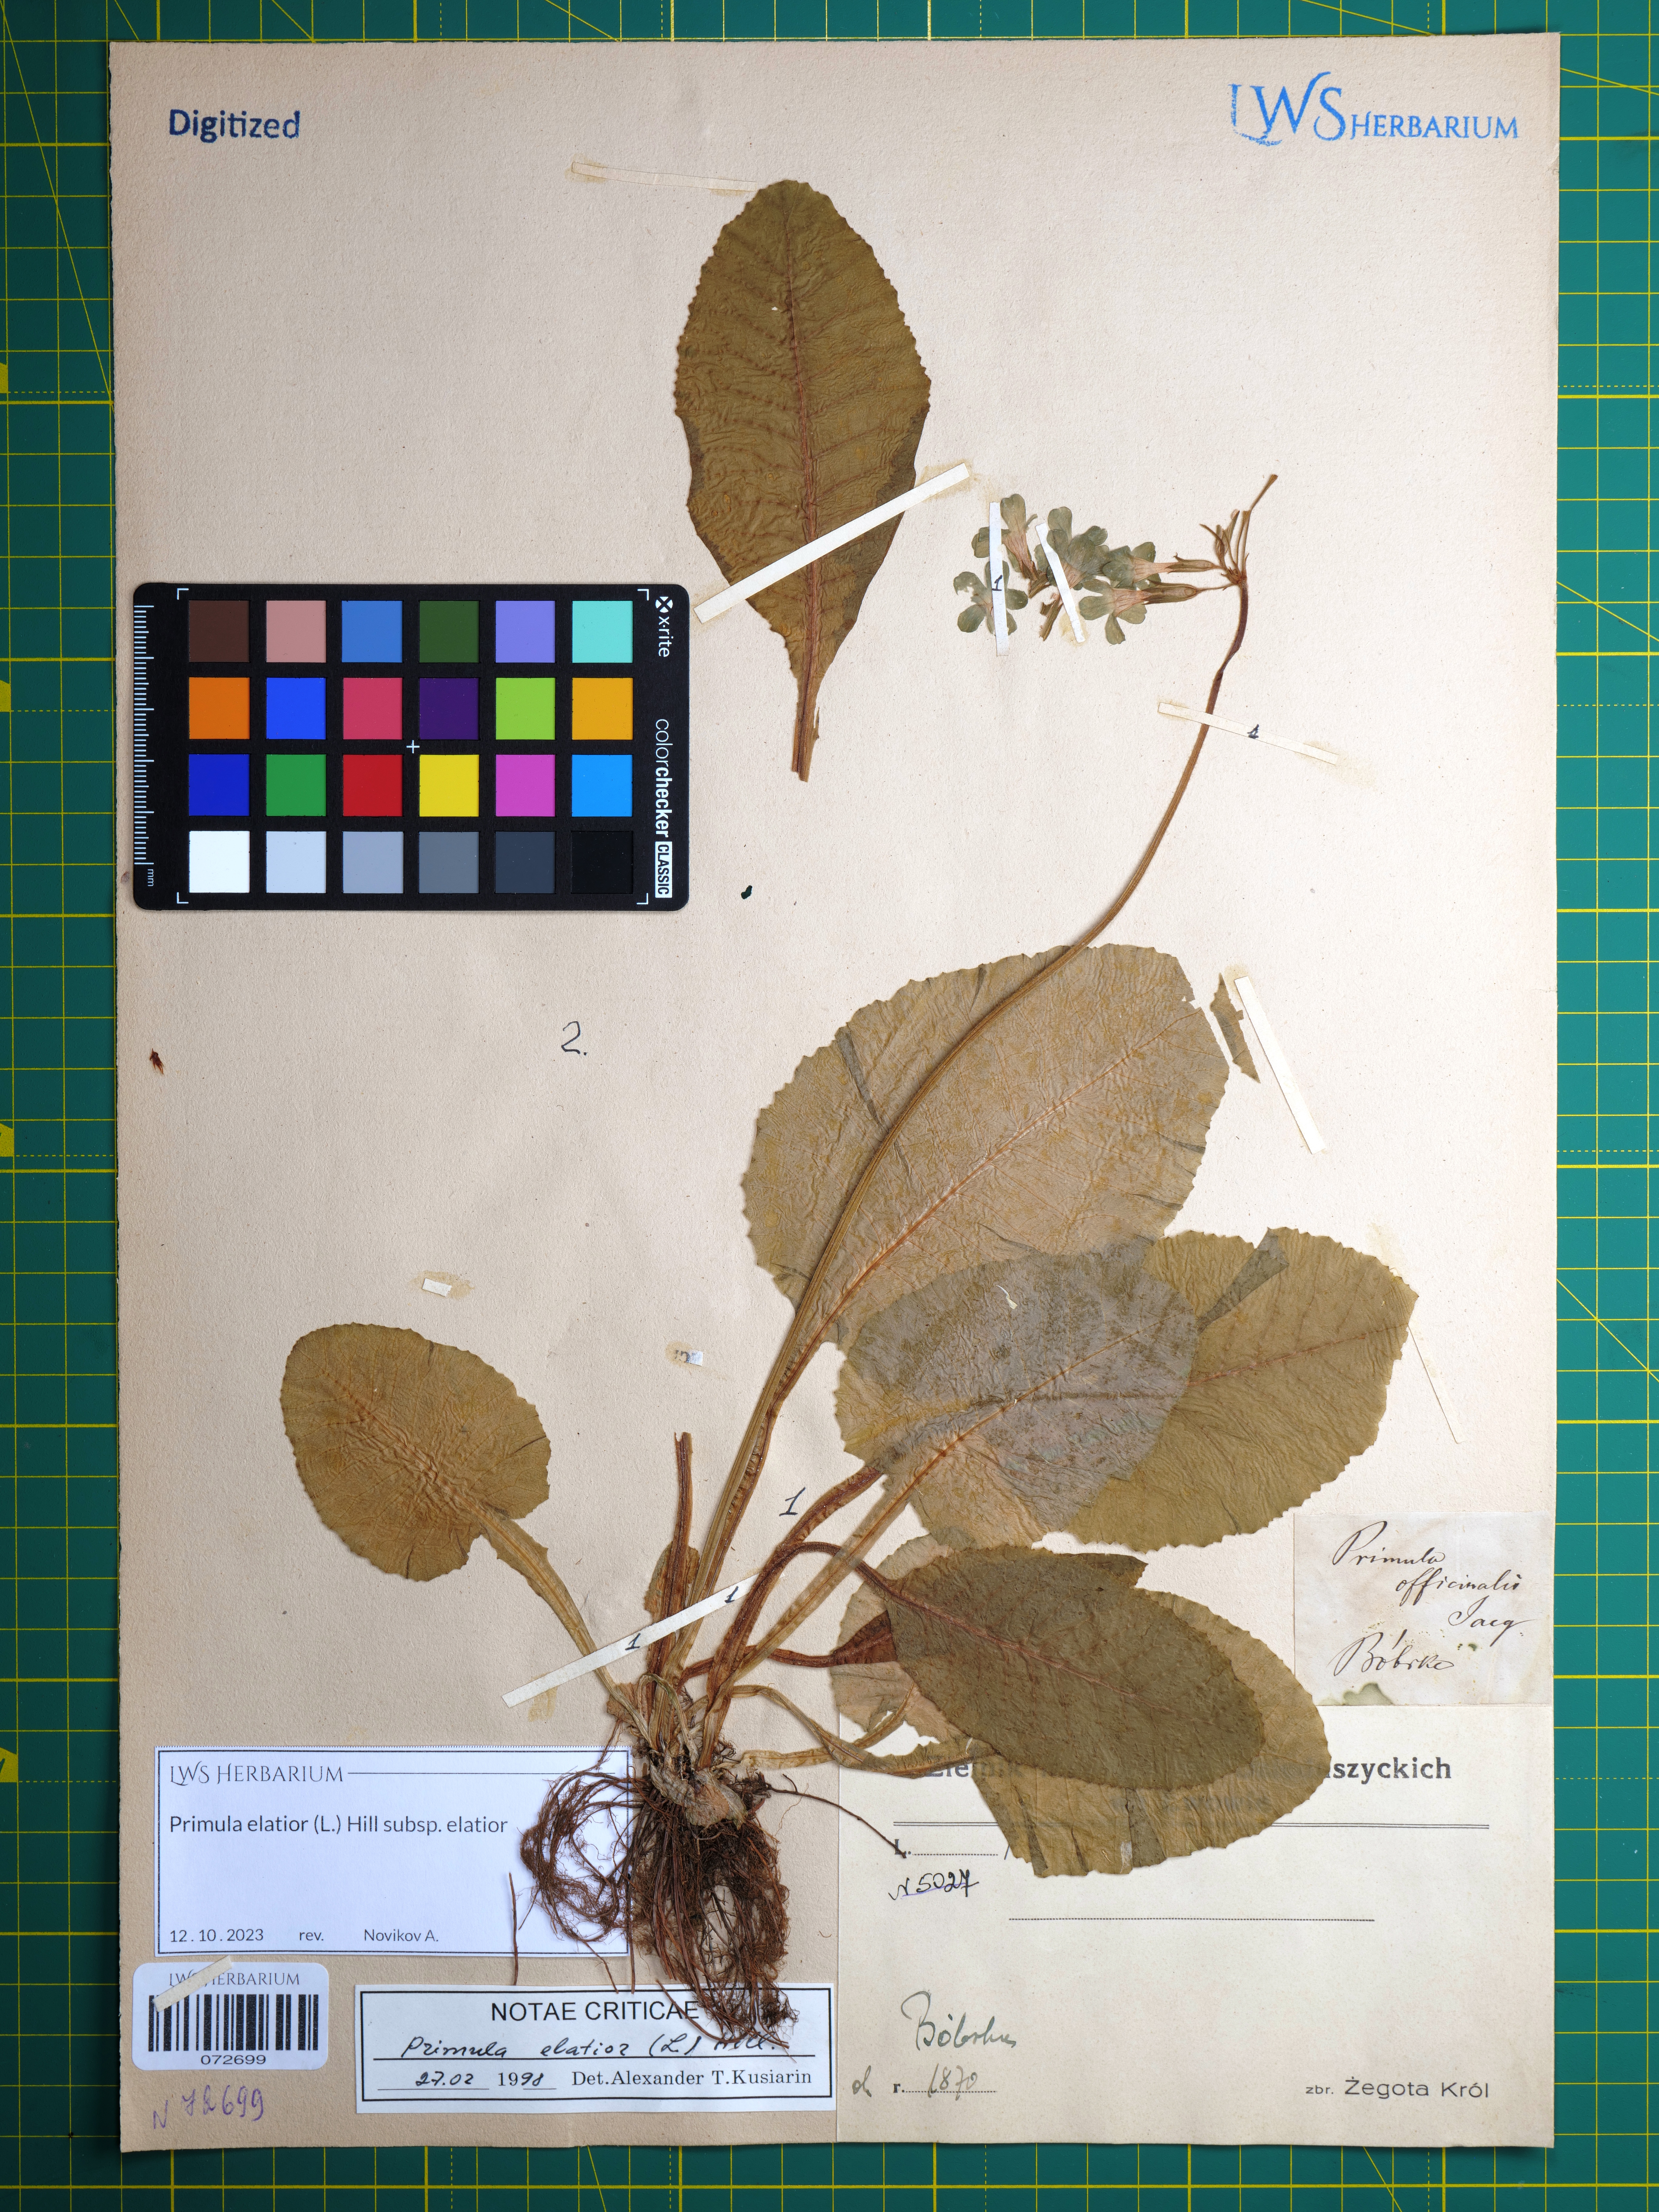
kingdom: Plantae
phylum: Tracheophyta
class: Magnoliopsida
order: Ericales
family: Primulaceae
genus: Primula
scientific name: Primula elatior
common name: Oxlip
